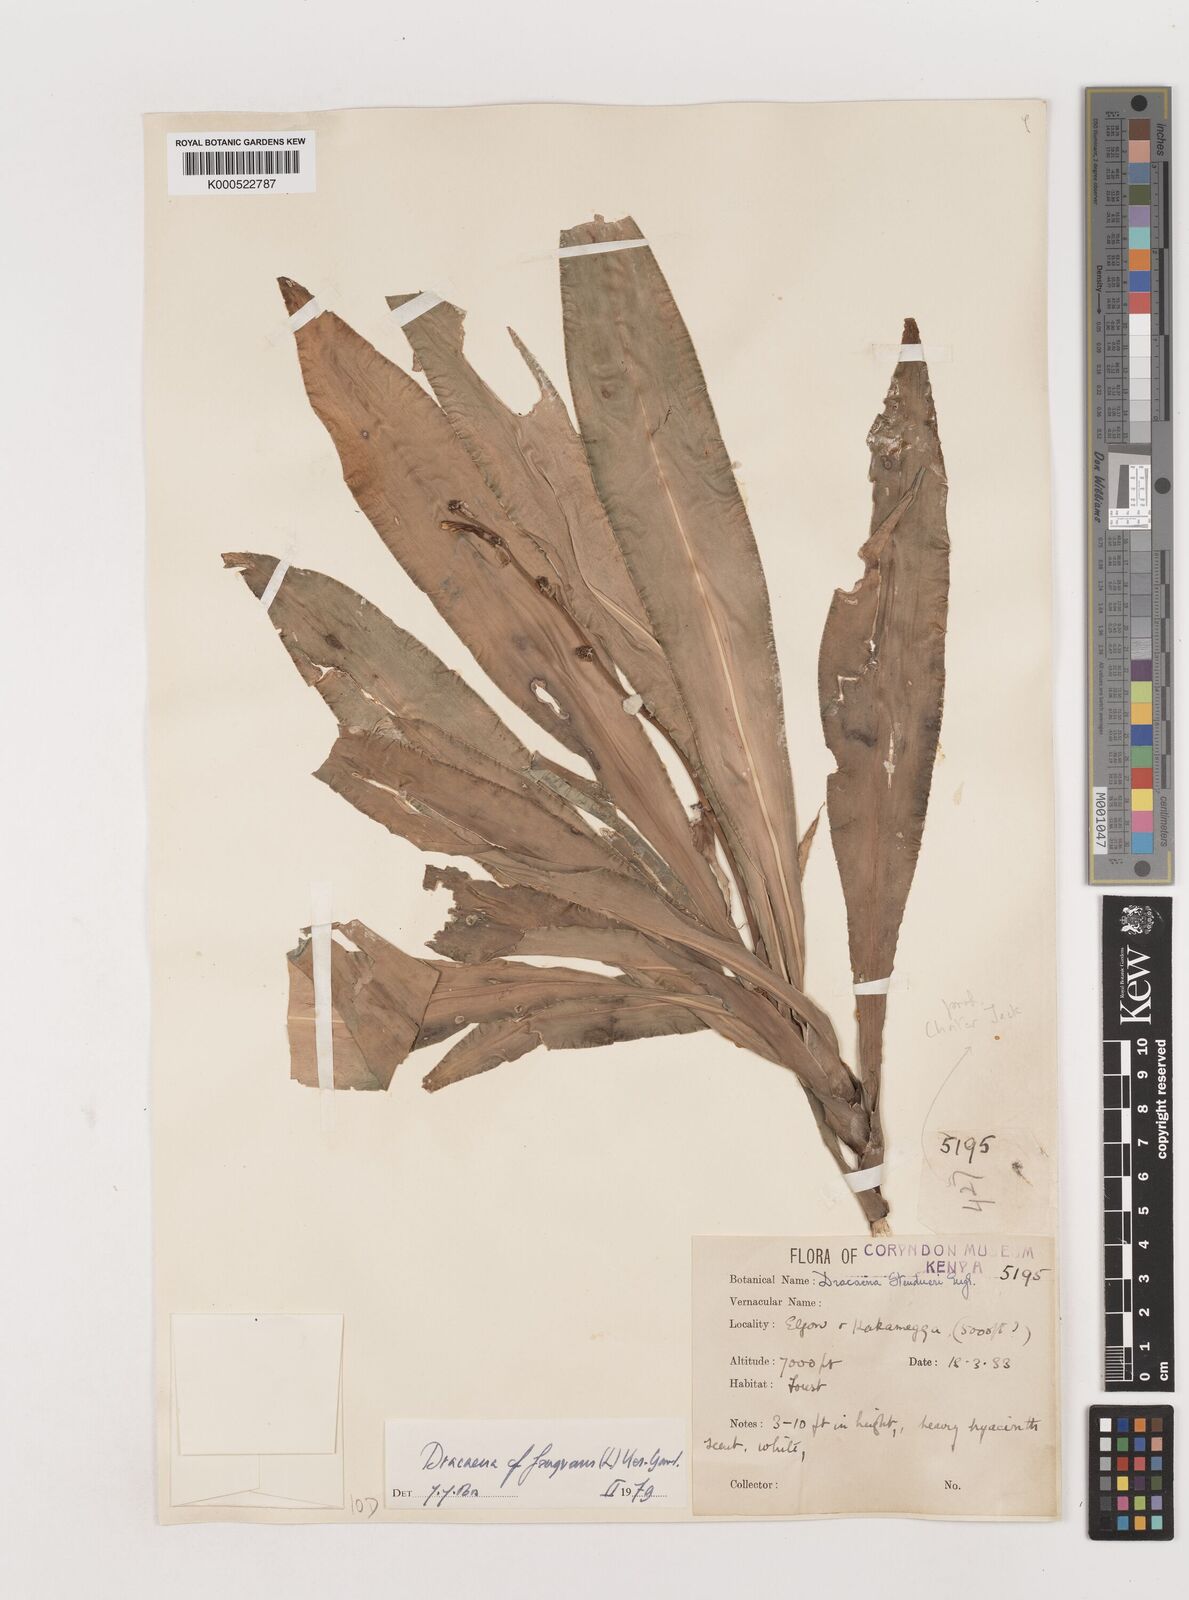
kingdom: Plantae
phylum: Tracheophyta
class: Liliopsida
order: Asparagales
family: Asparagaceae
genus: Dracaena
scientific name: Dracaena fragrans
